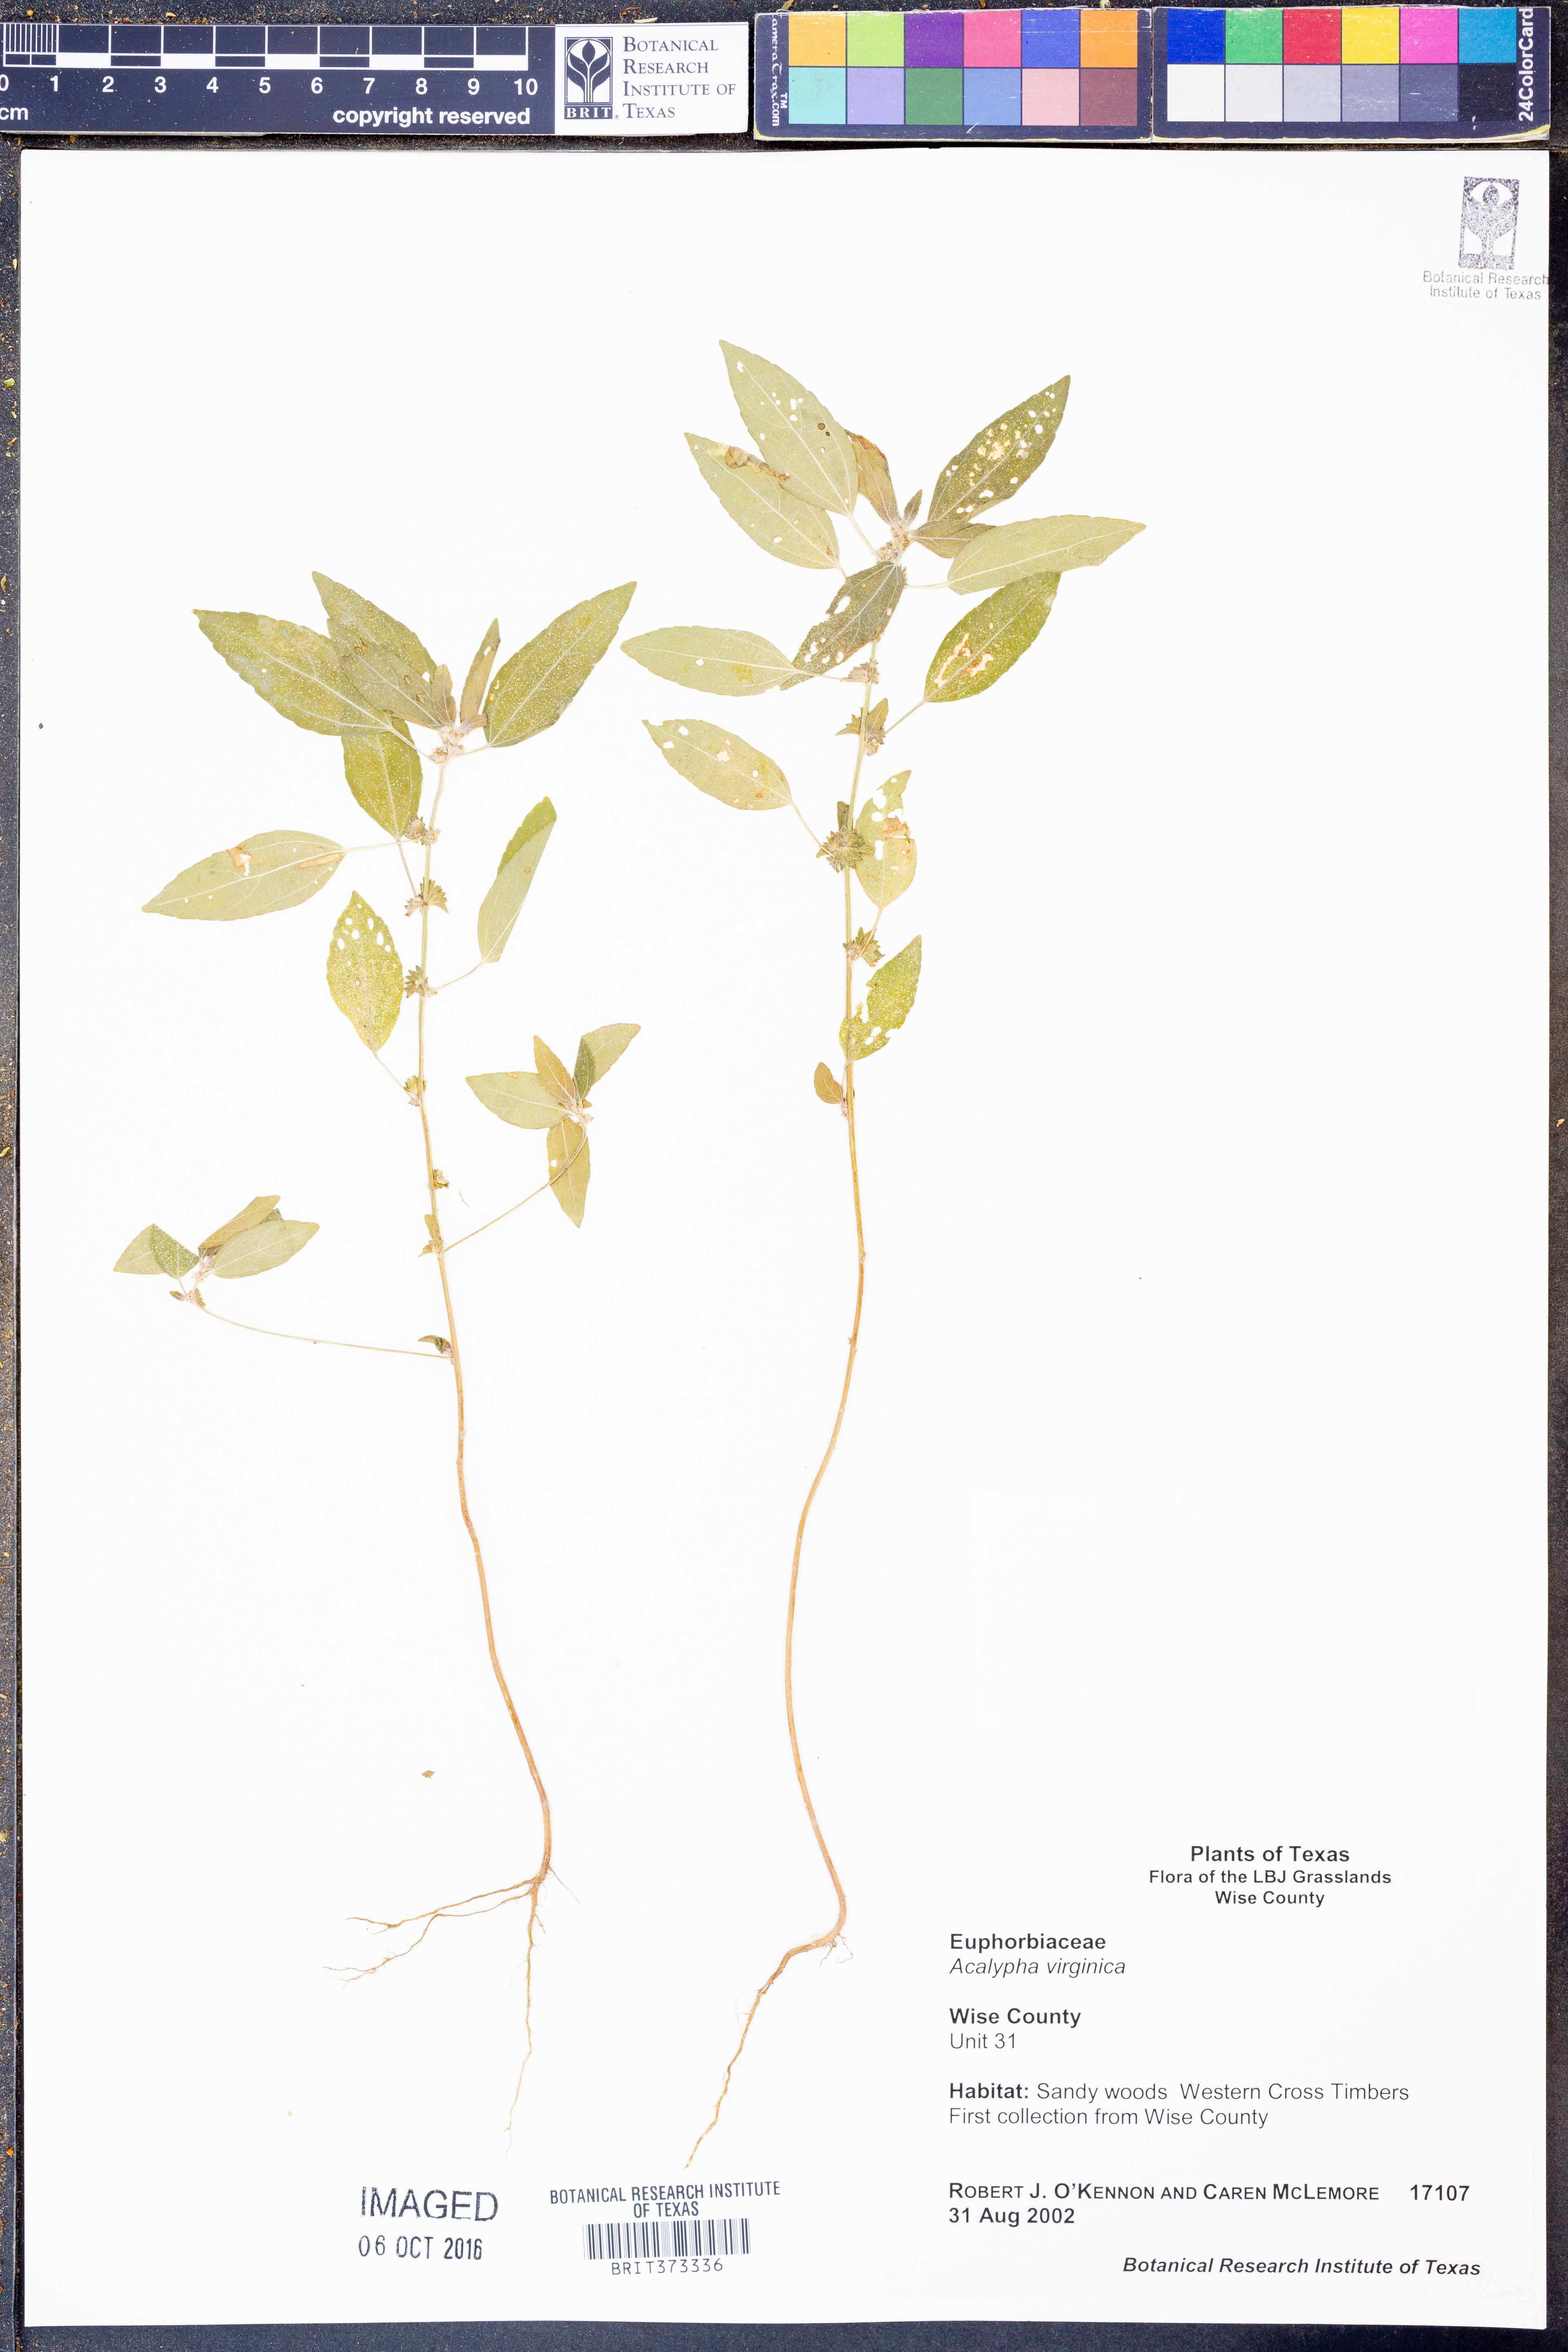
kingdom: Plantae
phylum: Tracheophyta
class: Magnoliopsida
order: Malpighiales
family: Euphorbiaceae
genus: Acalypha
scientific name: Acalypha virginica
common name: Virginia copperleaf
